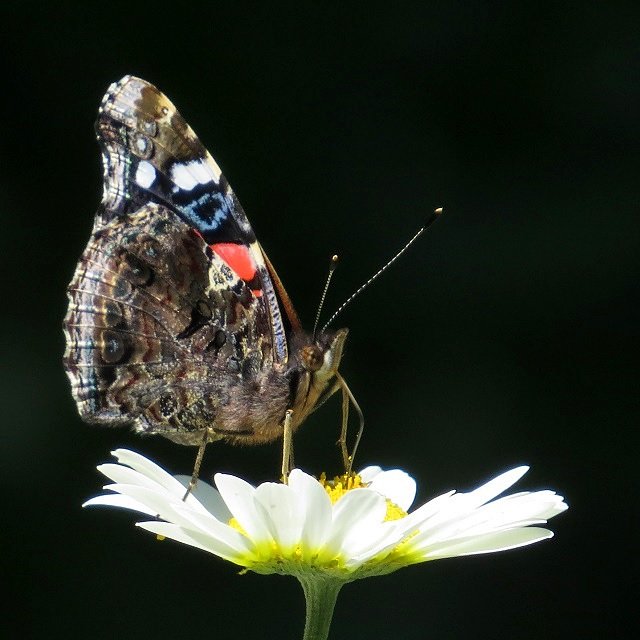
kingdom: Animalia
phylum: Arthropoda
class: Insecta
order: Lepidoptera
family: Nymphalidae
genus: Vanessa
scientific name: Vanessa atalanta
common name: Red Admiral
